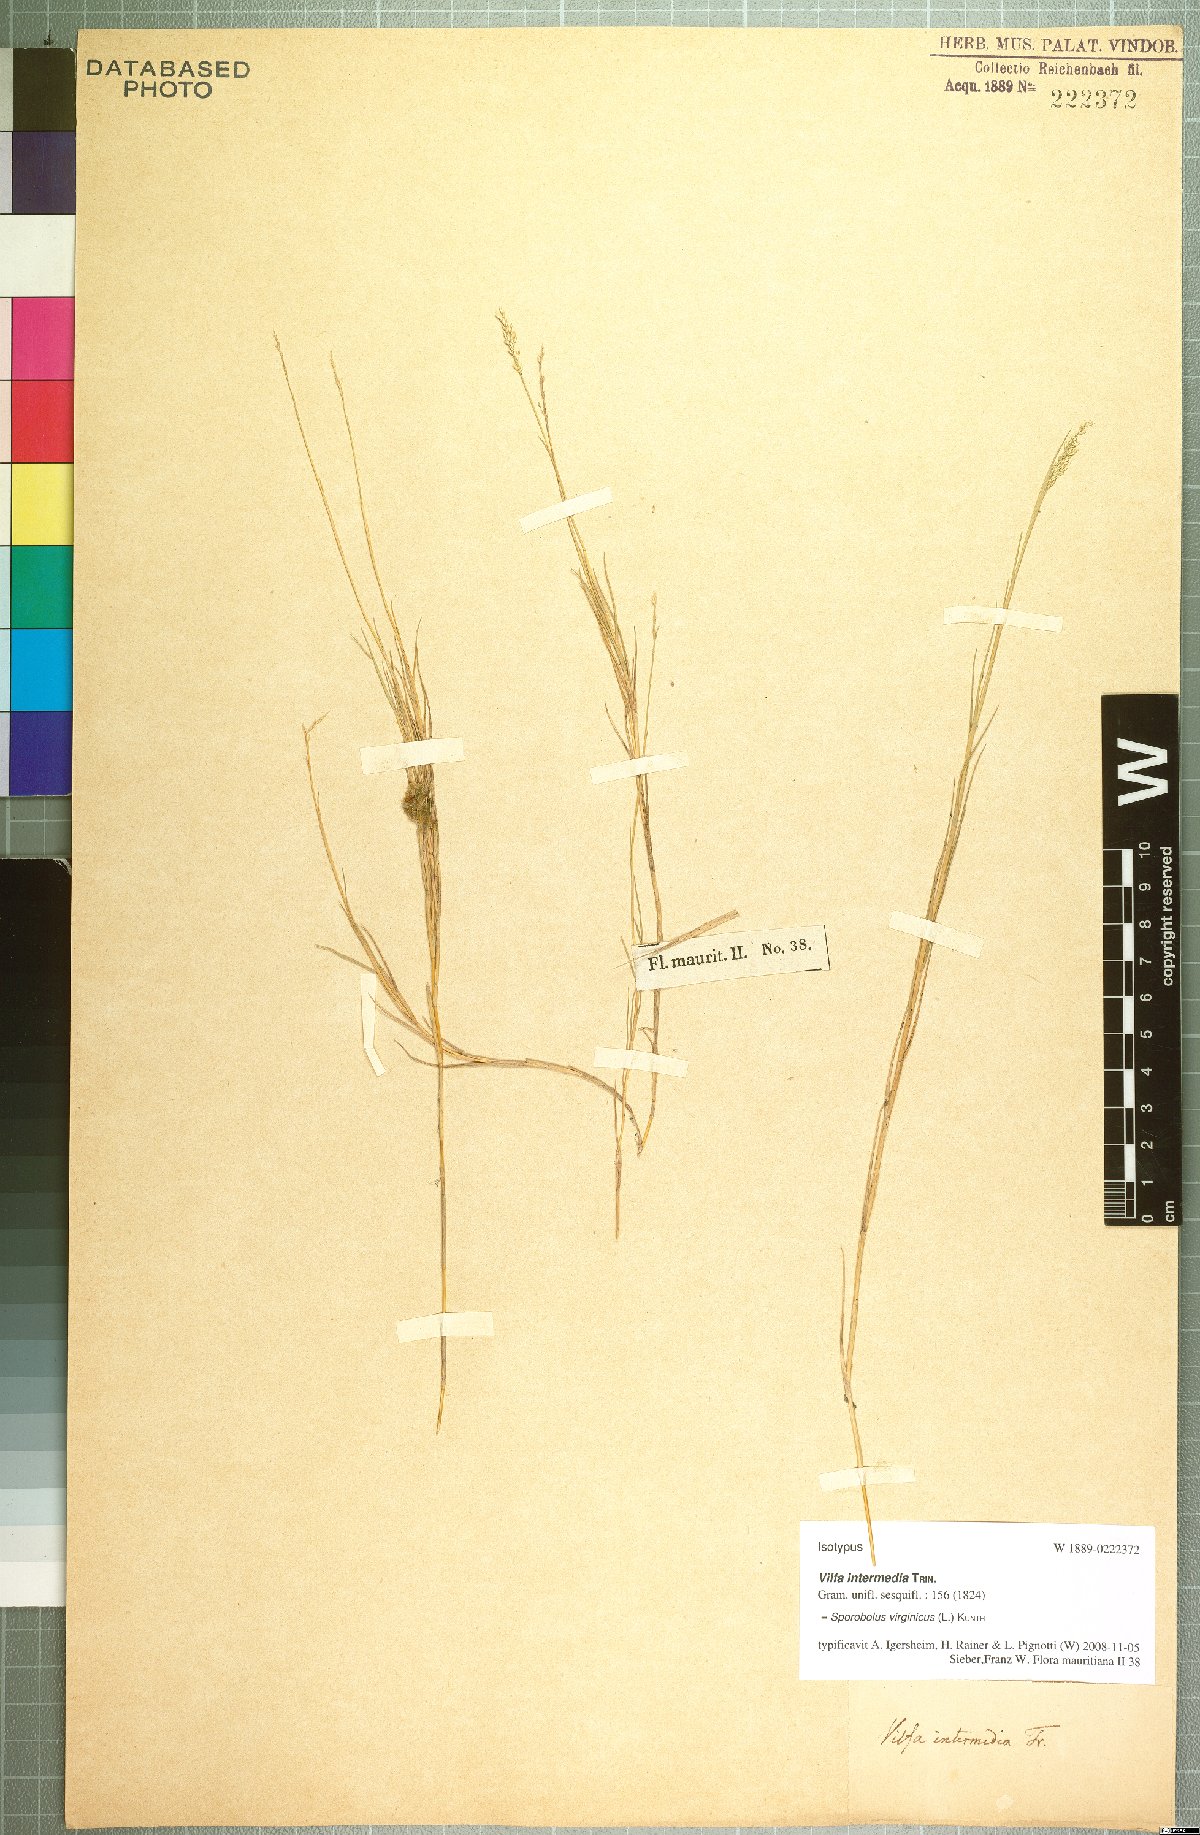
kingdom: Plantae
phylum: Tracheophyta
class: Liliopsida
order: Poales
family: Poaceae
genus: Sporobolus
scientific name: Sporobolus virginicus
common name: Beach dropseed
